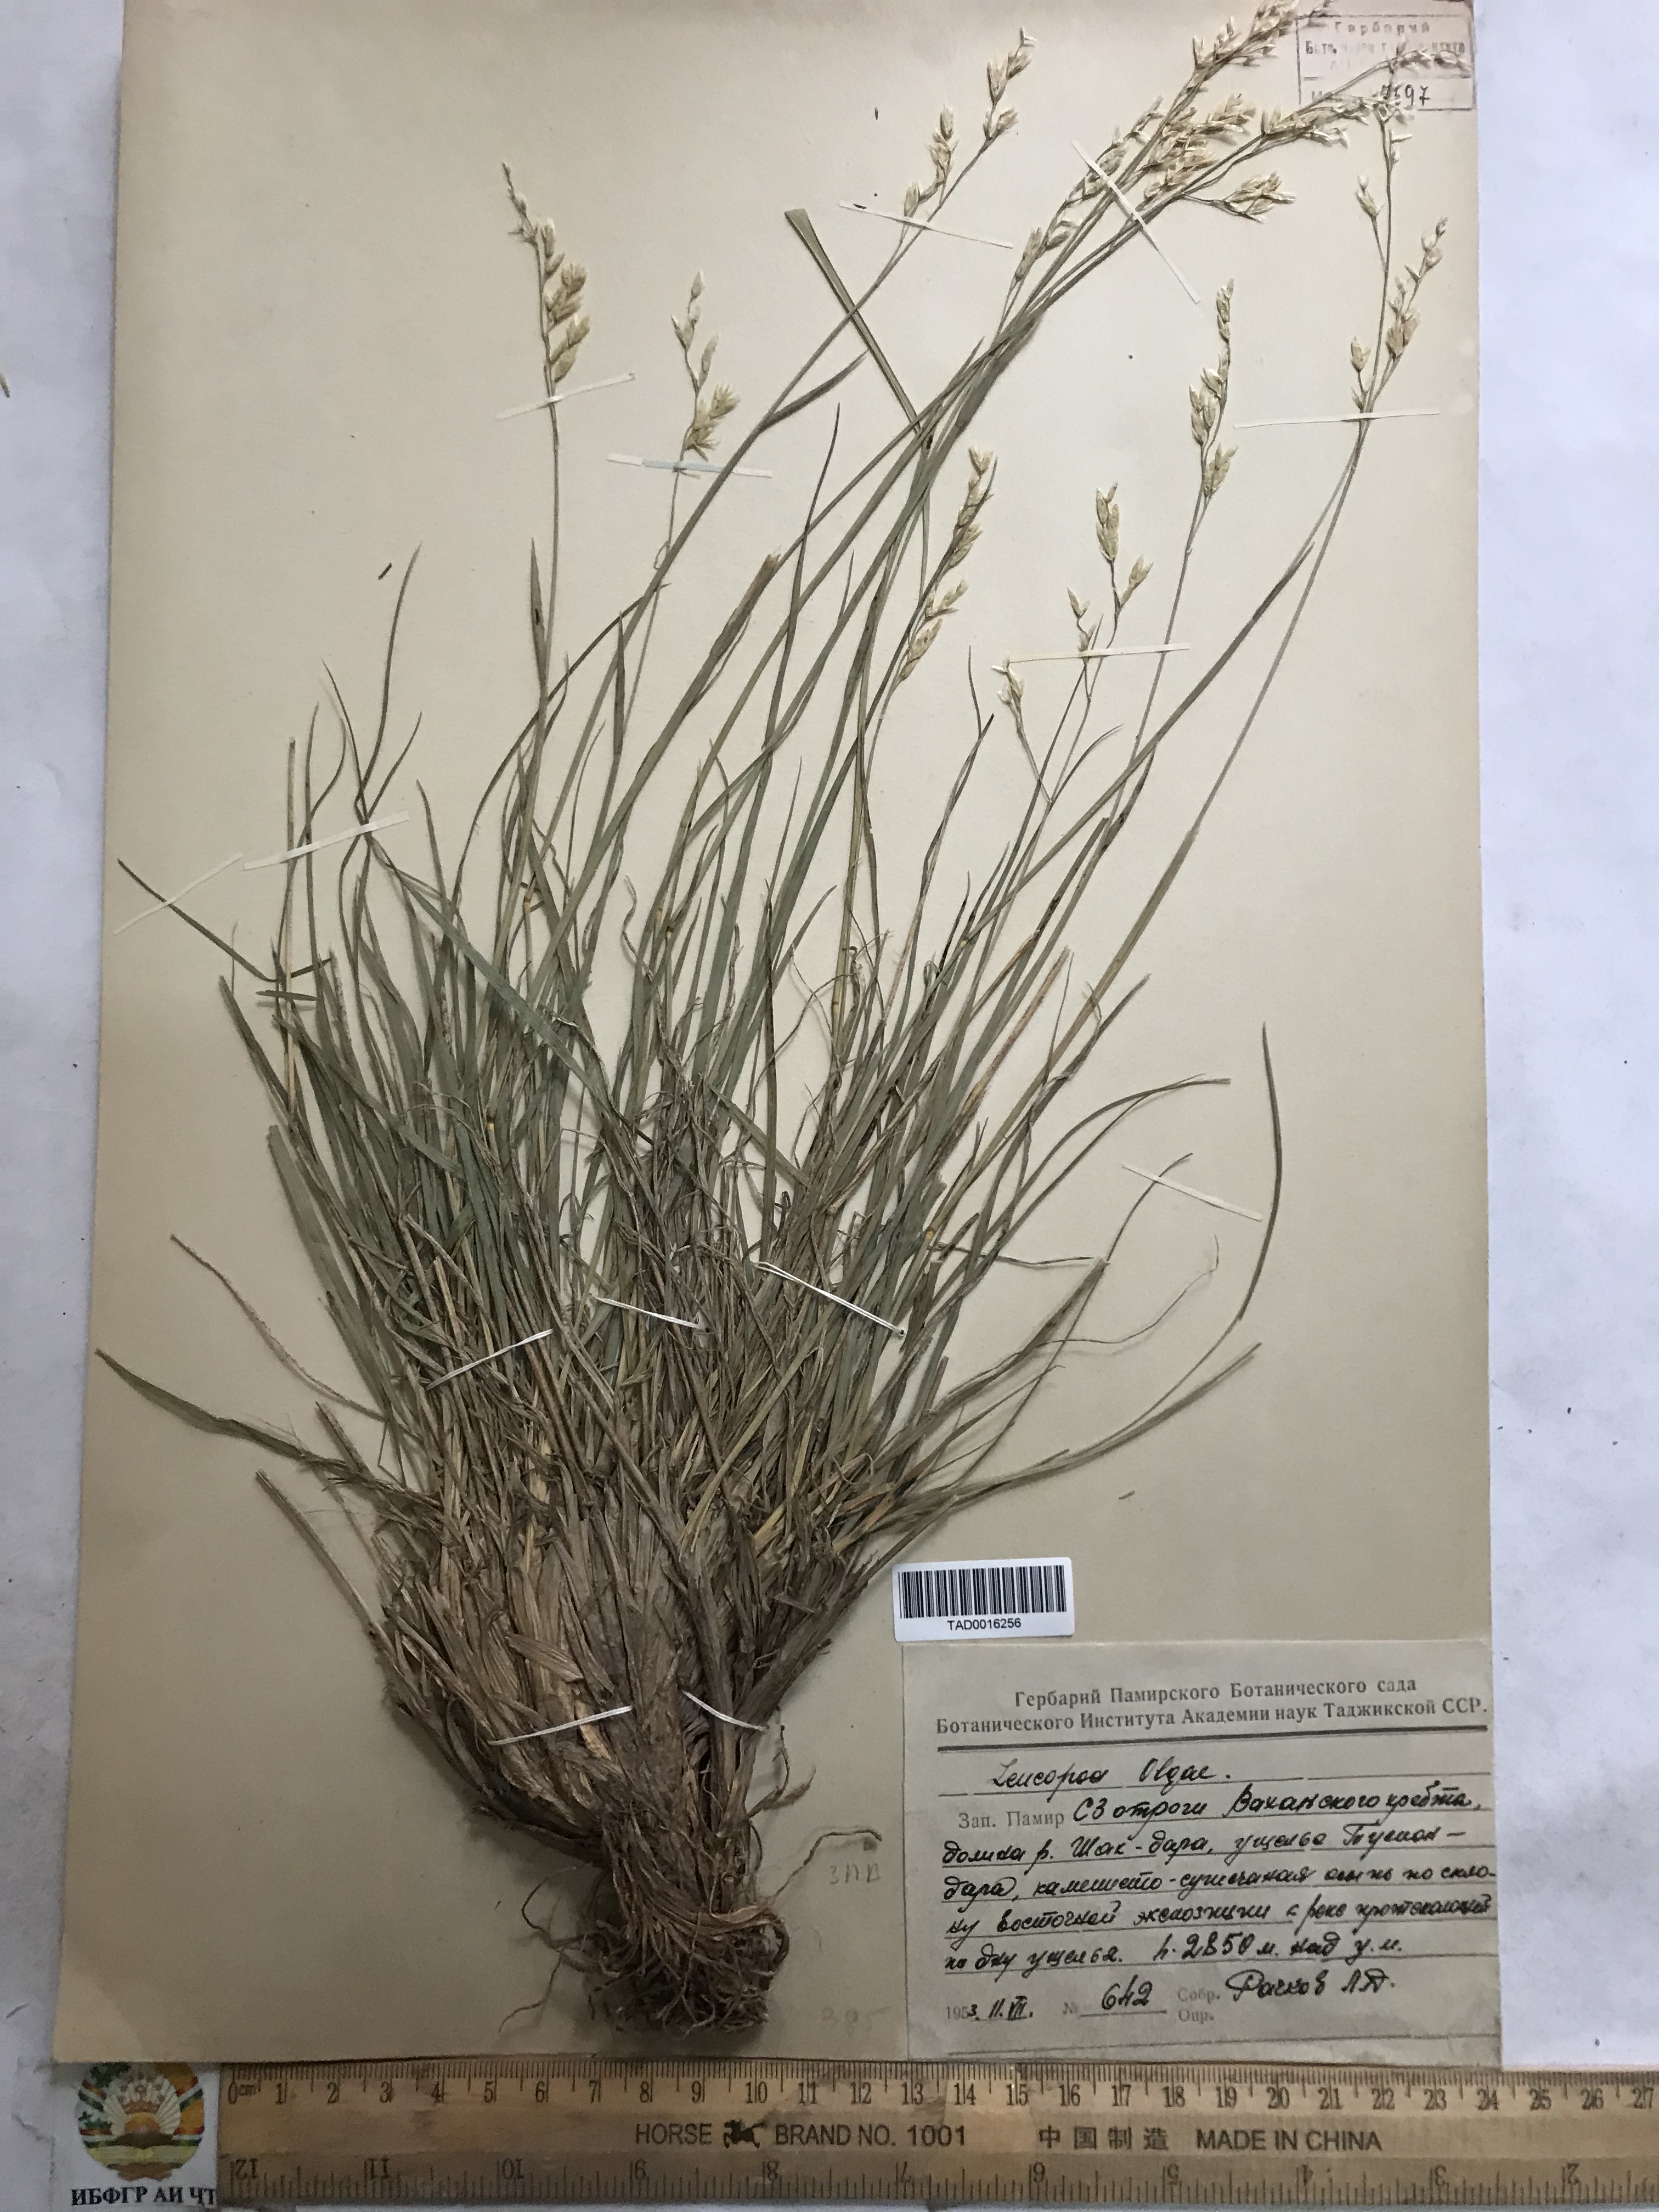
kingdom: Plantae
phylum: Tracheophyta
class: Liliopsida
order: Poales
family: Poaceae
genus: Festuca
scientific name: Festuca
